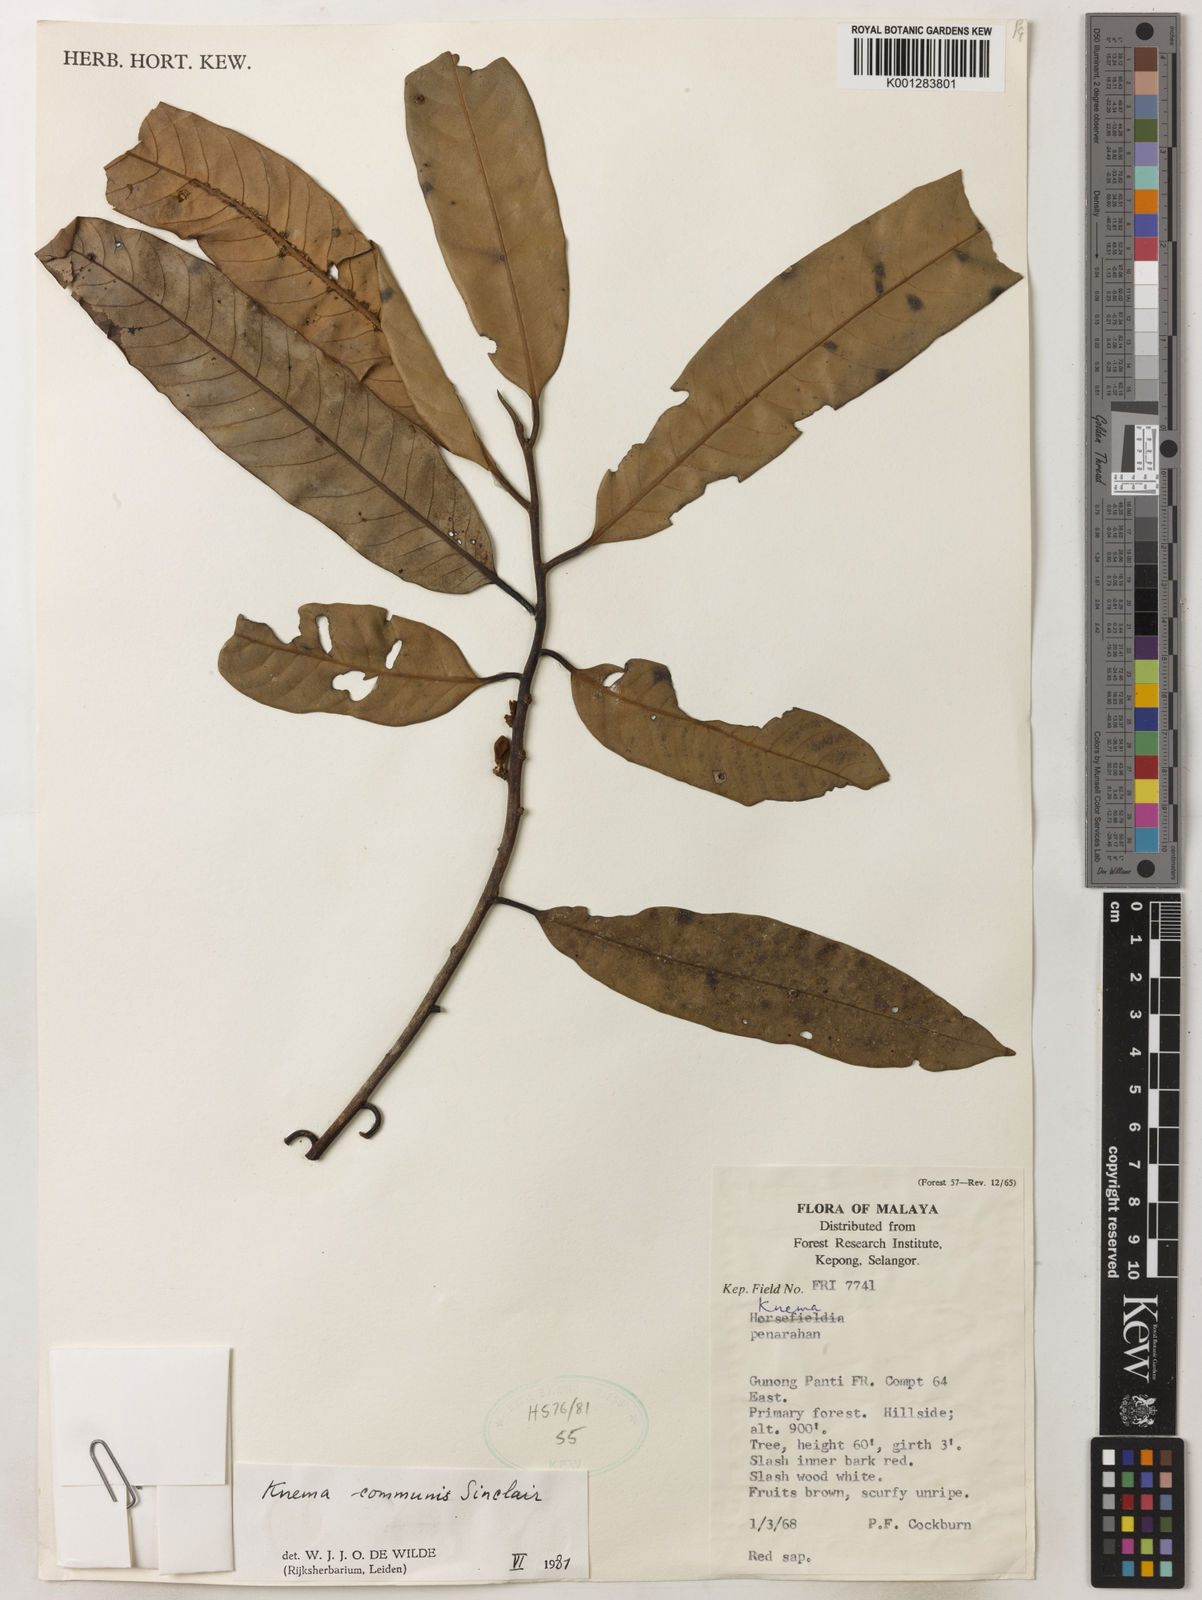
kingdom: Plantae
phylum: Tracheophyta
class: Magnoliopsida
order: Magnoliales
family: Myristicaceae
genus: Knema
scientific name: Knema communis
